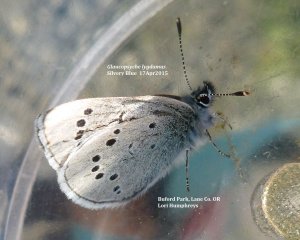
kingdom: Animalia
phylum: Arthropoda
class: Insecta
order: Lepidoptera
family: Lycaenidae
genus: Glaucopsyche
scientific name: Glaucopsyche lygdamus
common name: Silvery Blue
